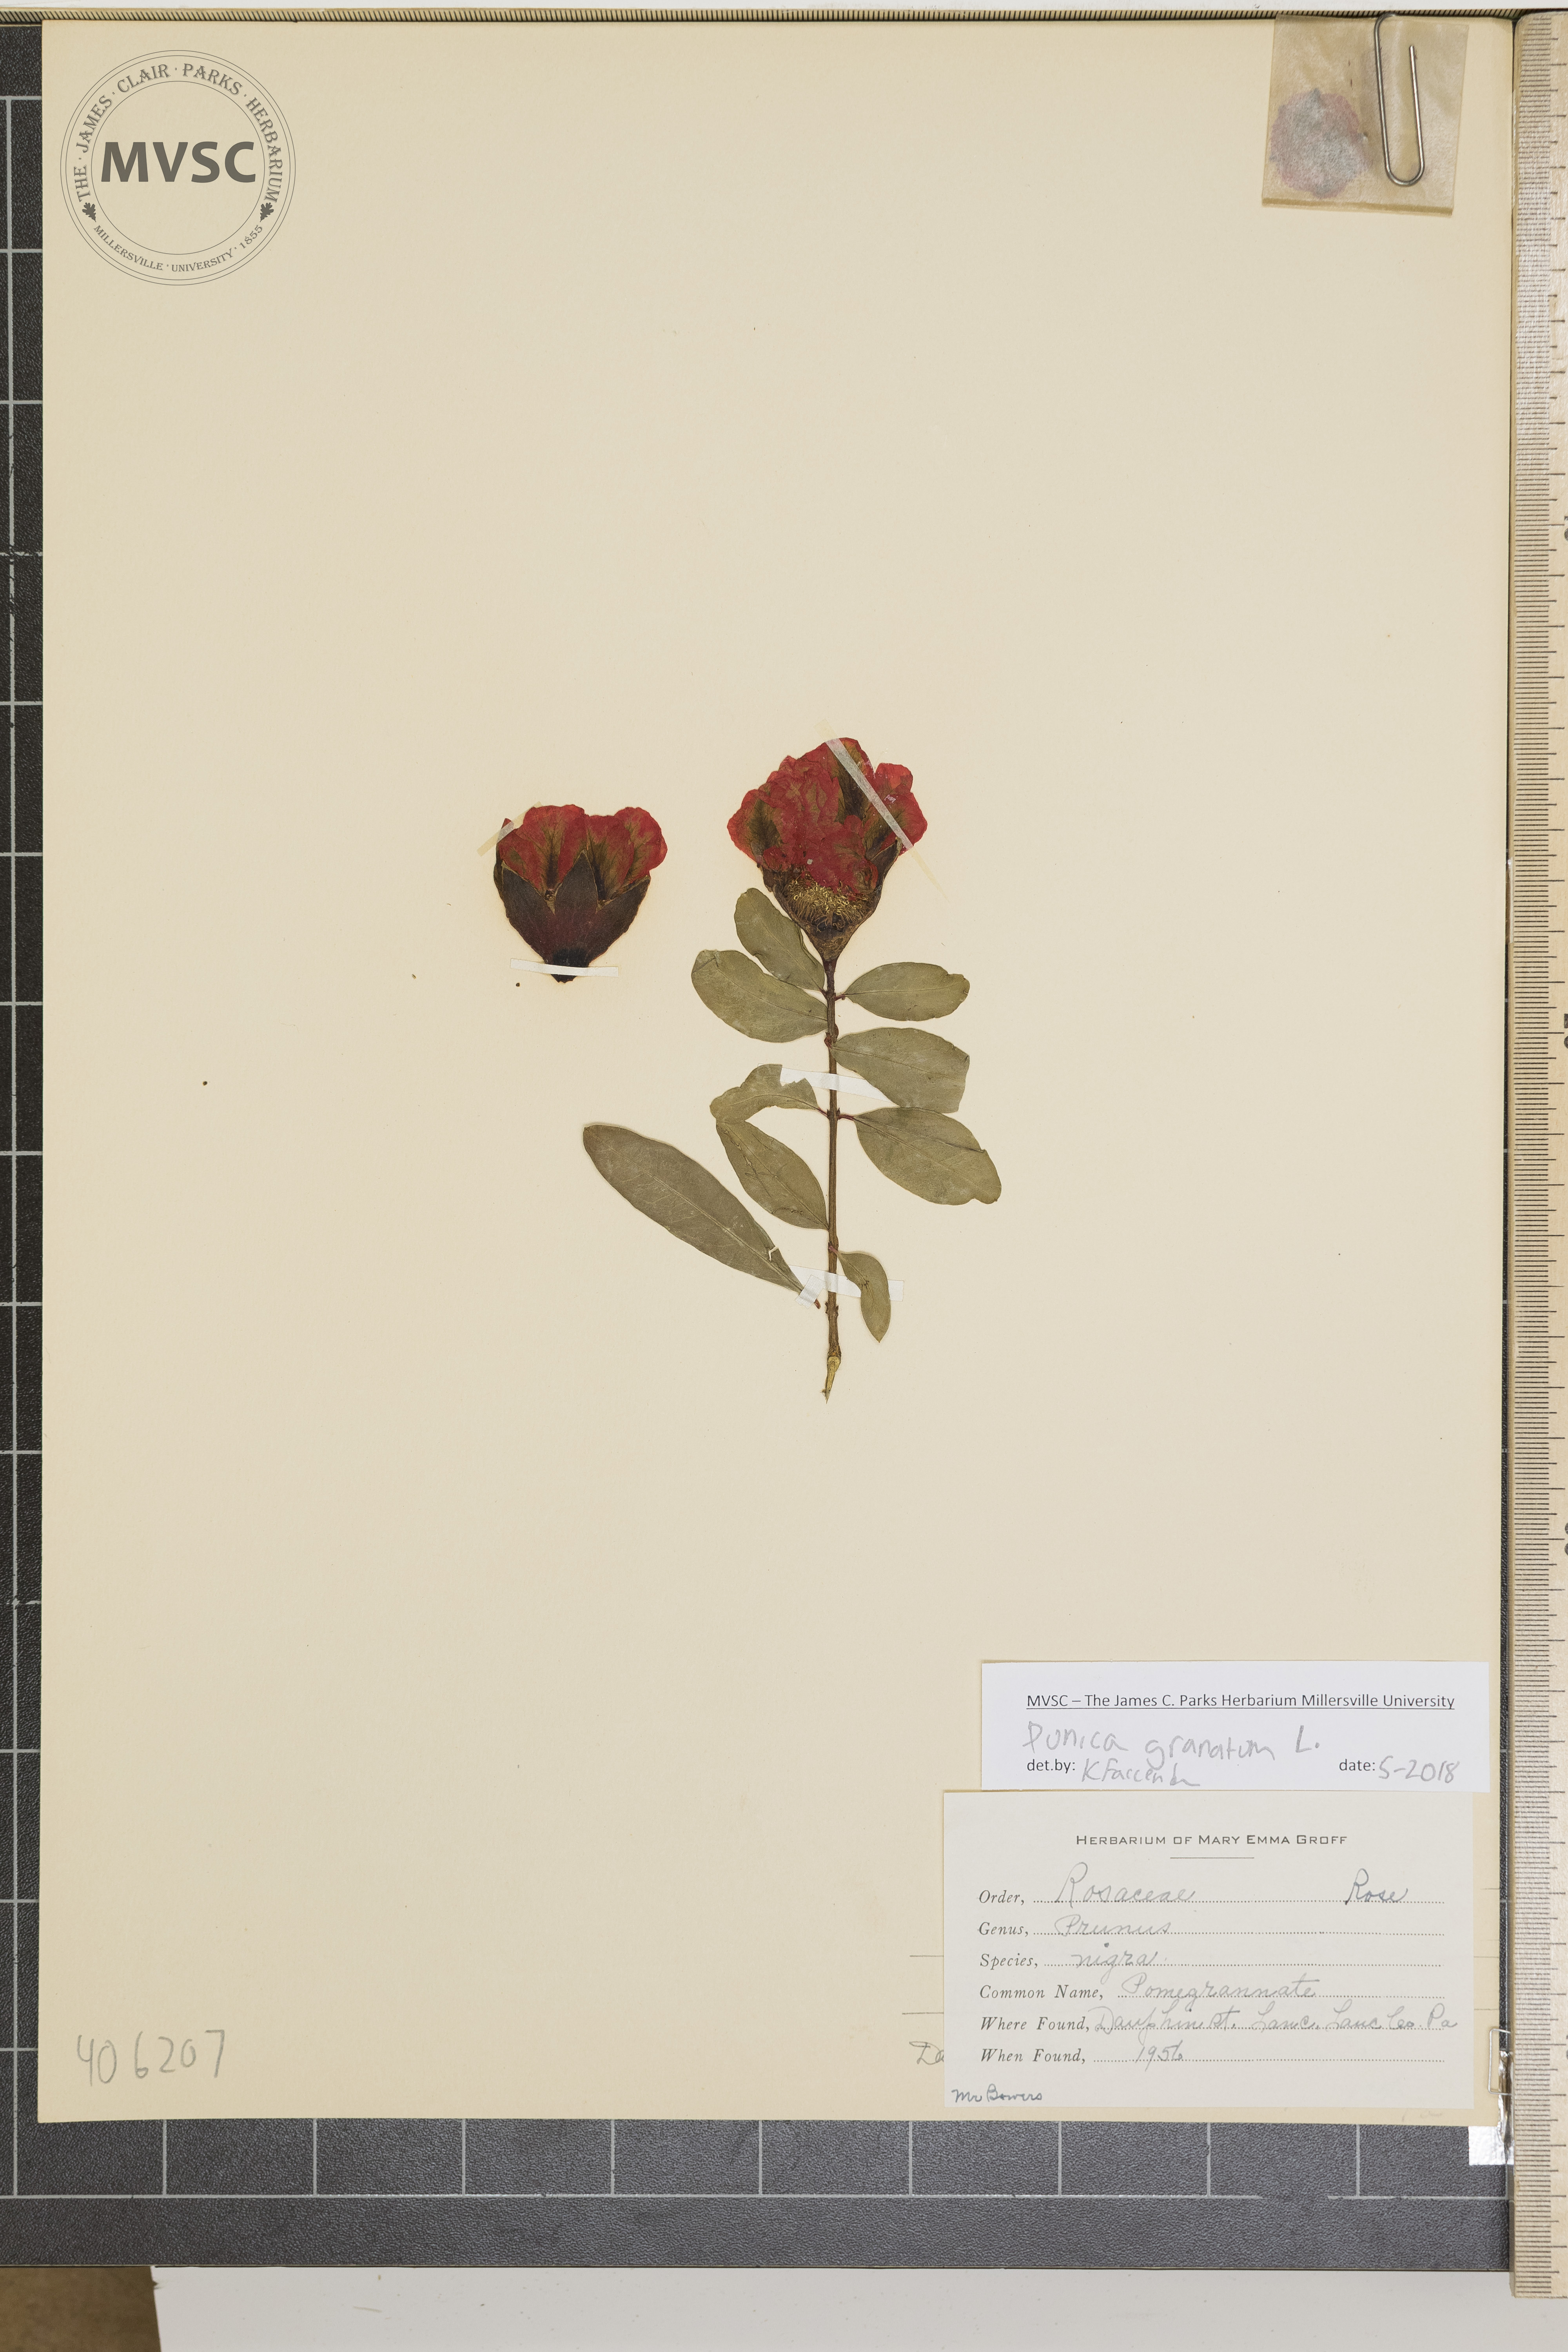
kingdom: Plantae
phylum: Tracheophyta
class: Magnoliopsida
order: Myrtales
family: Lythraceae
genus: Punica
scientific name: Punica granatum
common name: Pomegranate
